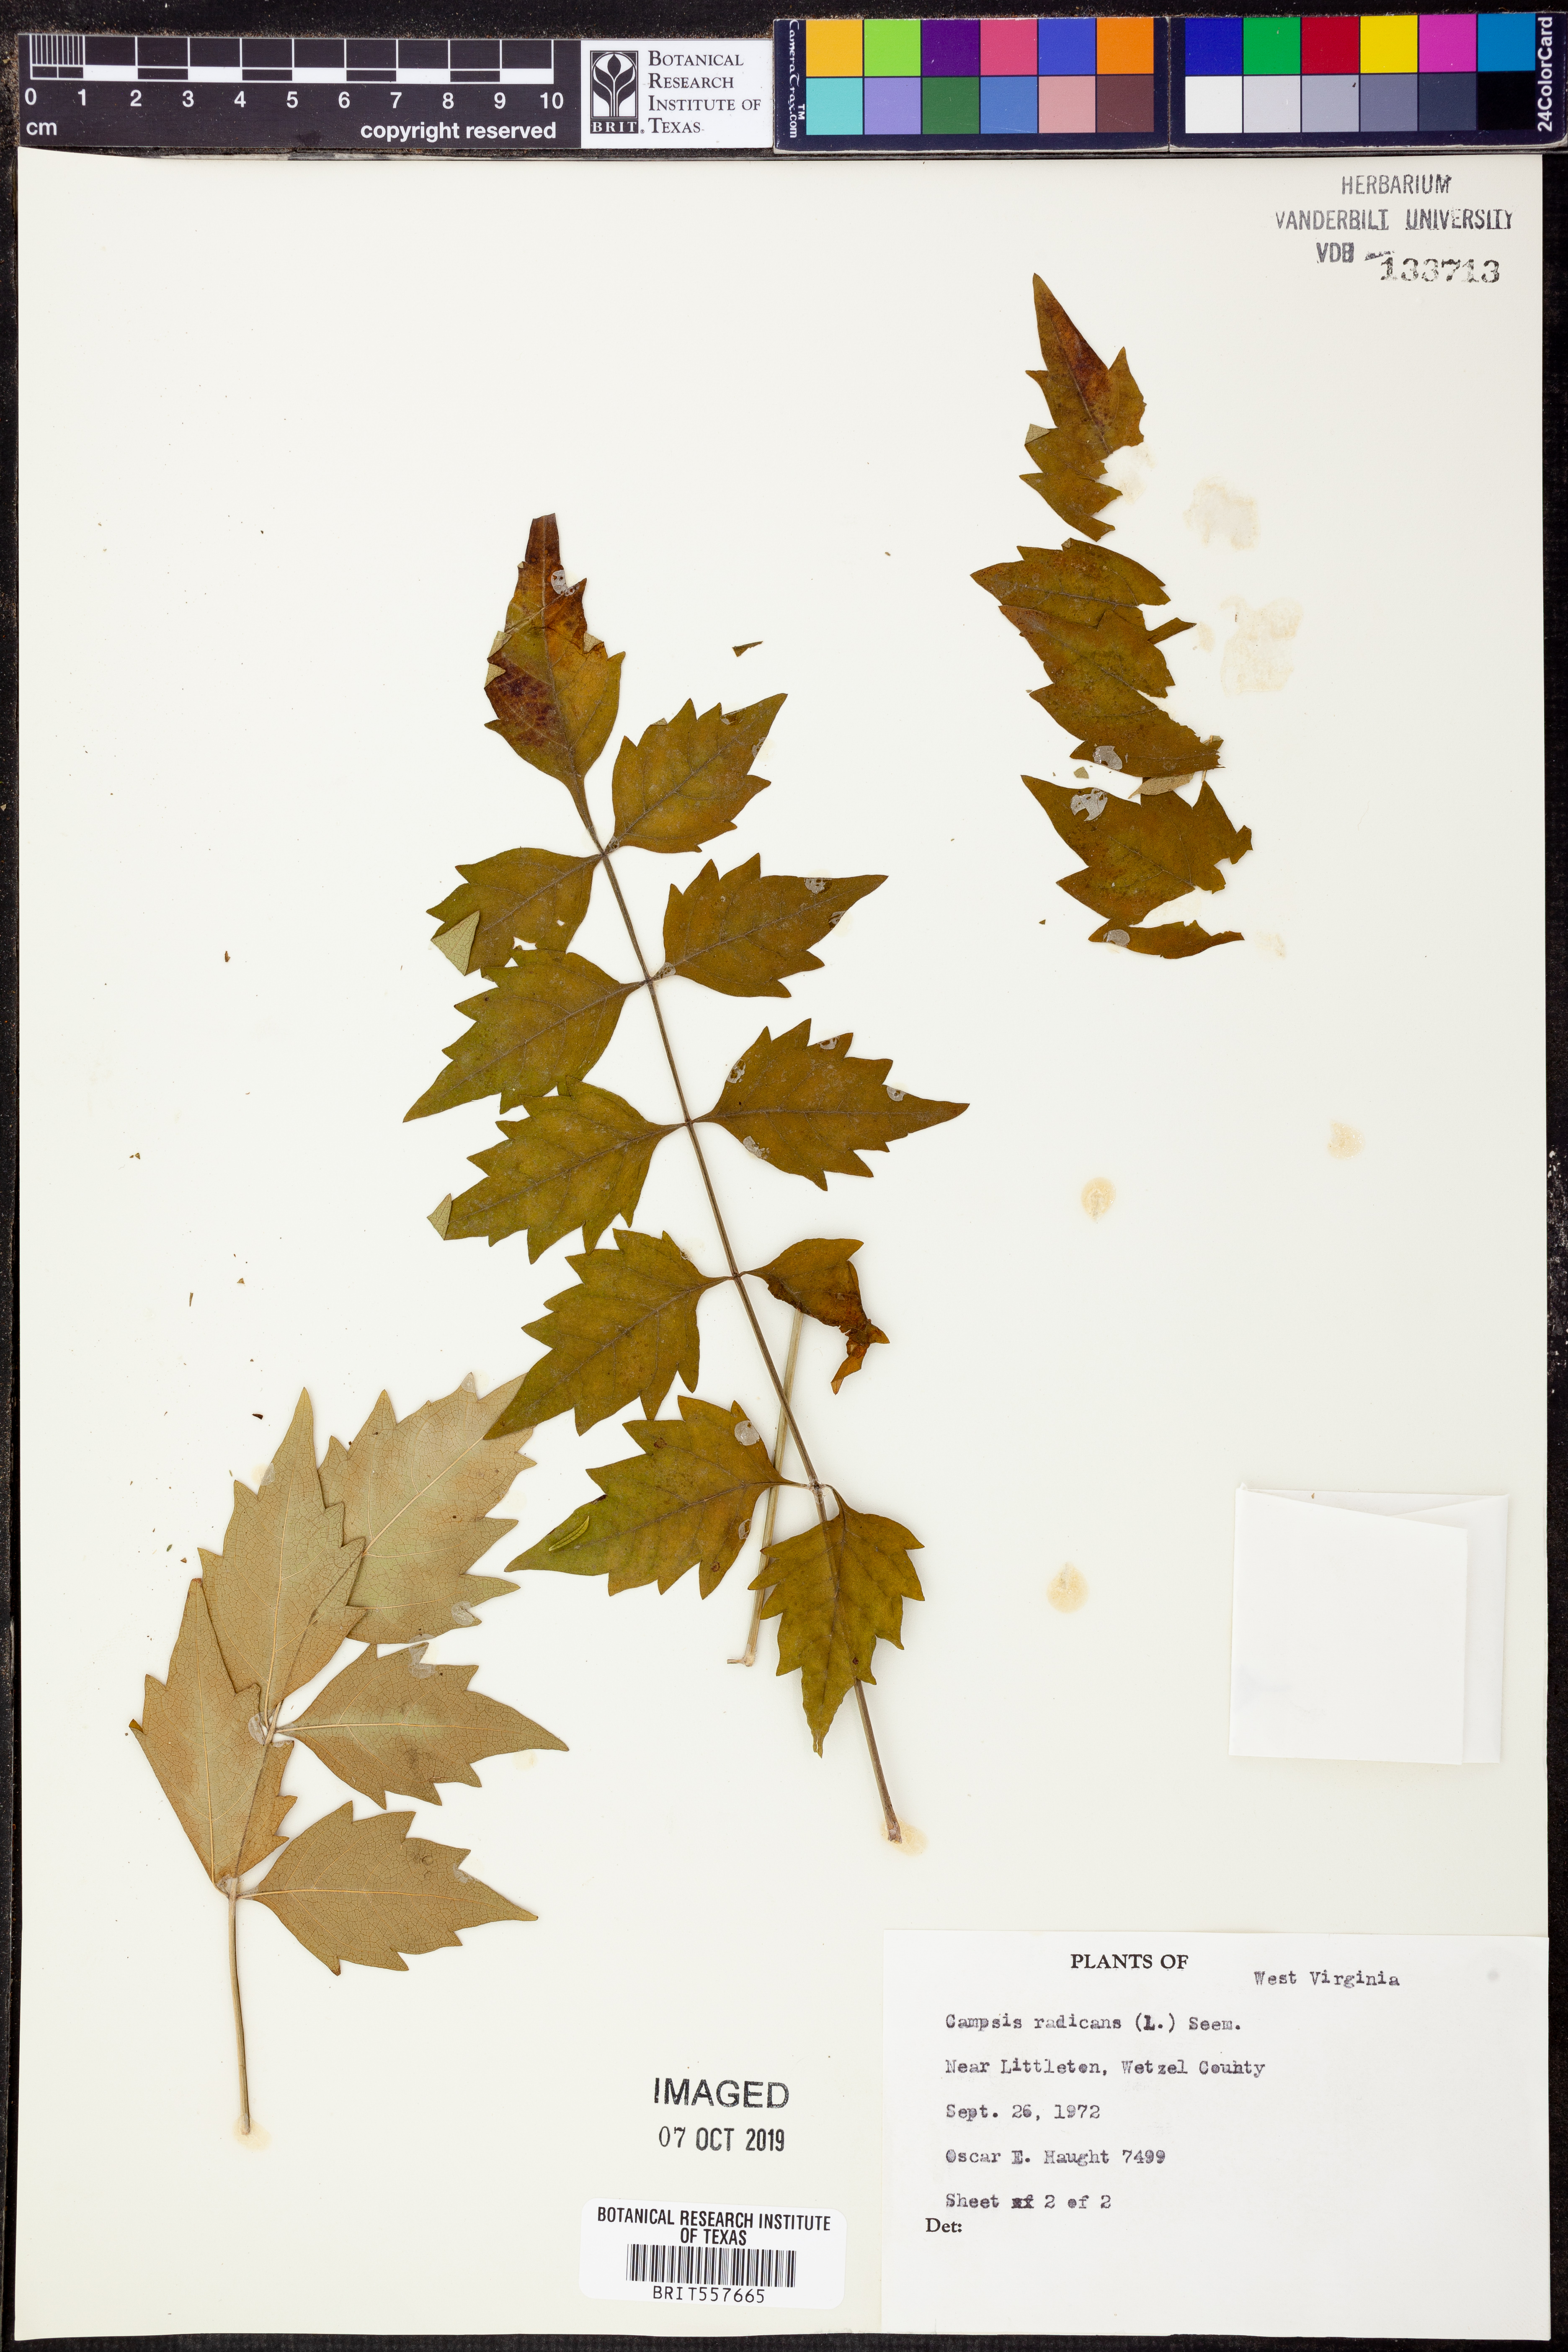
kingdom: Plantae
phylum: Tracheophyta
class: Magnoliopsida
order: Lamiales
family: Bignoniaceae
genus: Campsis
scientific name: Campsis radicans
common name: Trumpet-creeper
